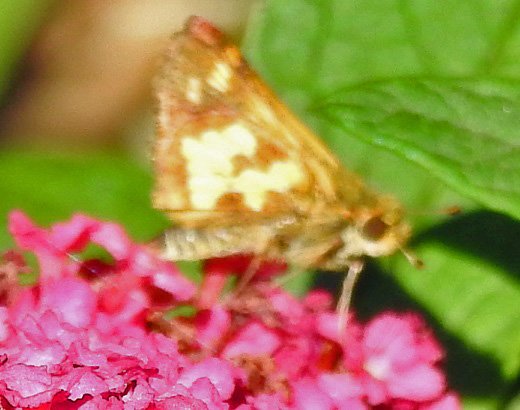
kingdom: Animalia
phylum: Arthropoda
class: Insecta
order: Lepidoptera
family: Hesperiidae
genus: Atalopedes
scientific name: Atalopedes campestris
